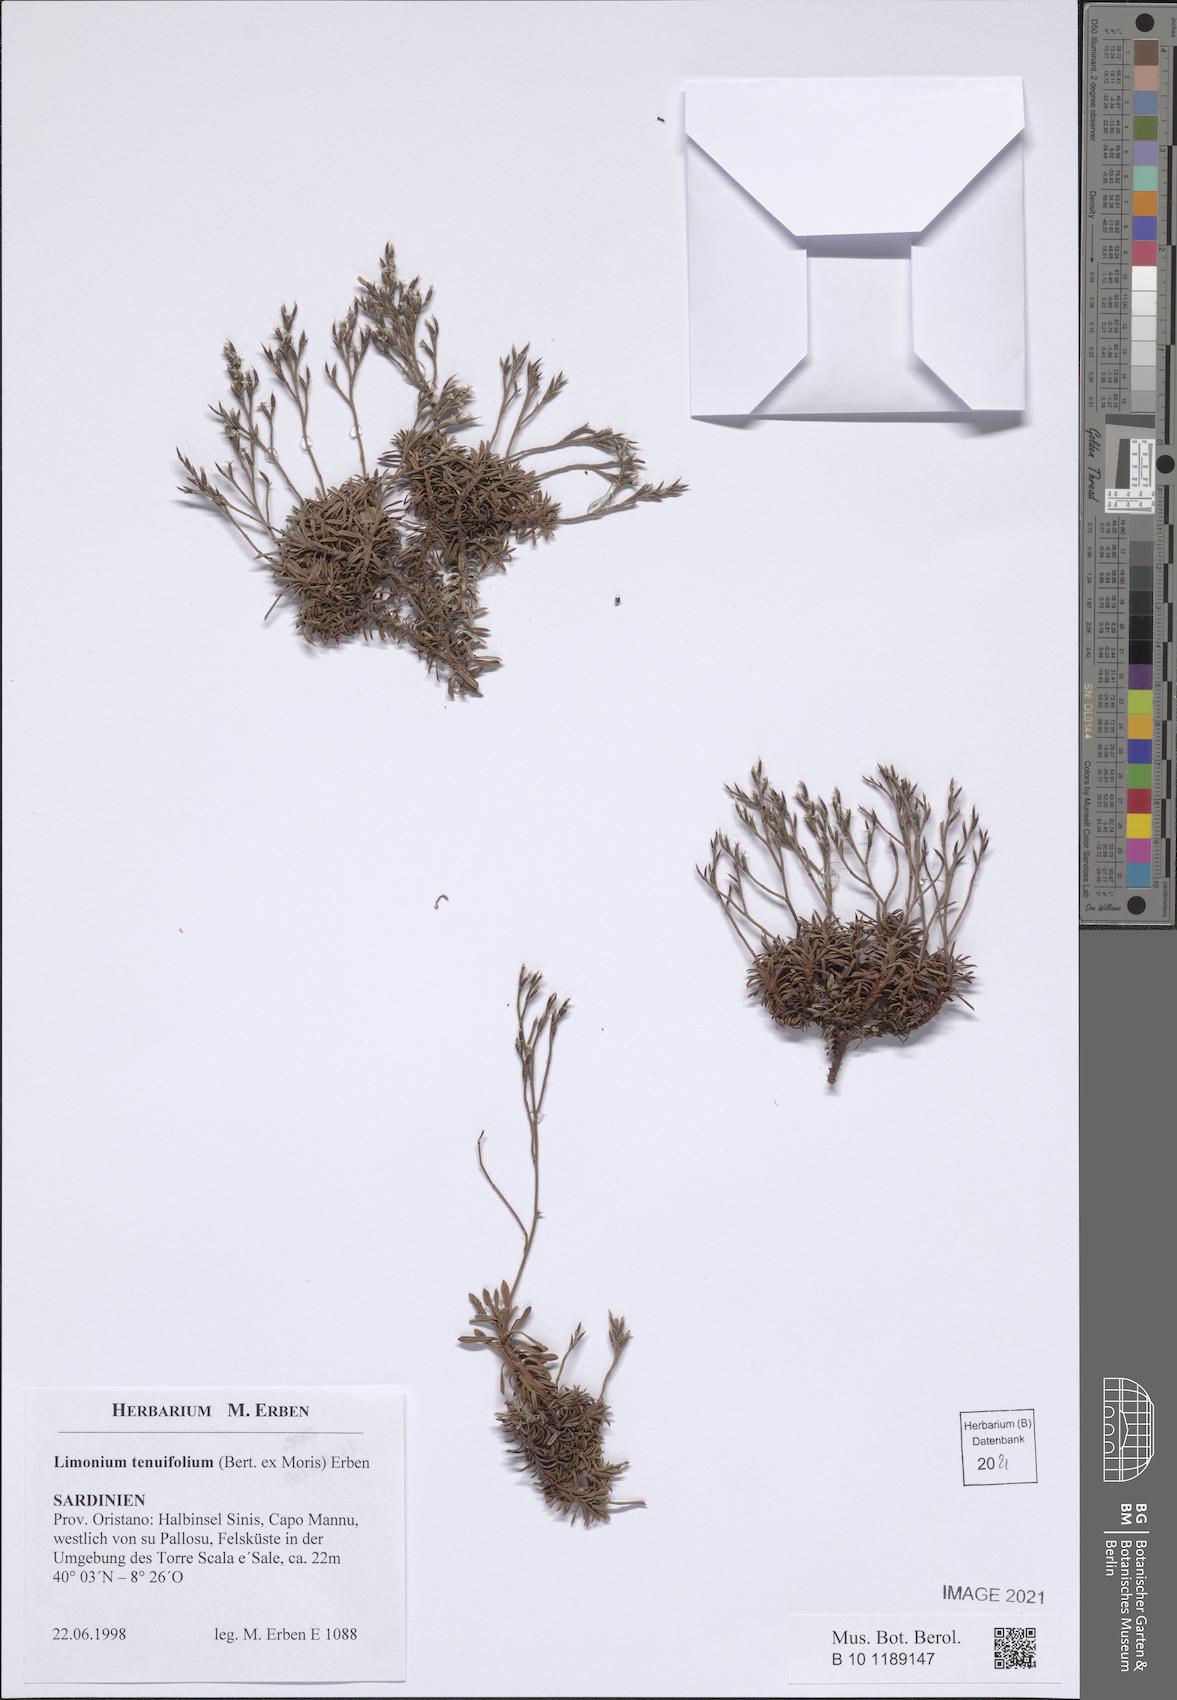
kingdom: Plantae
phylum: Tracheophyta
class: Magnoliopsida
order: Caryophyllales
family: Plumbaginaceae
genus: Limonium
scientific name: Limonium acutifolium
